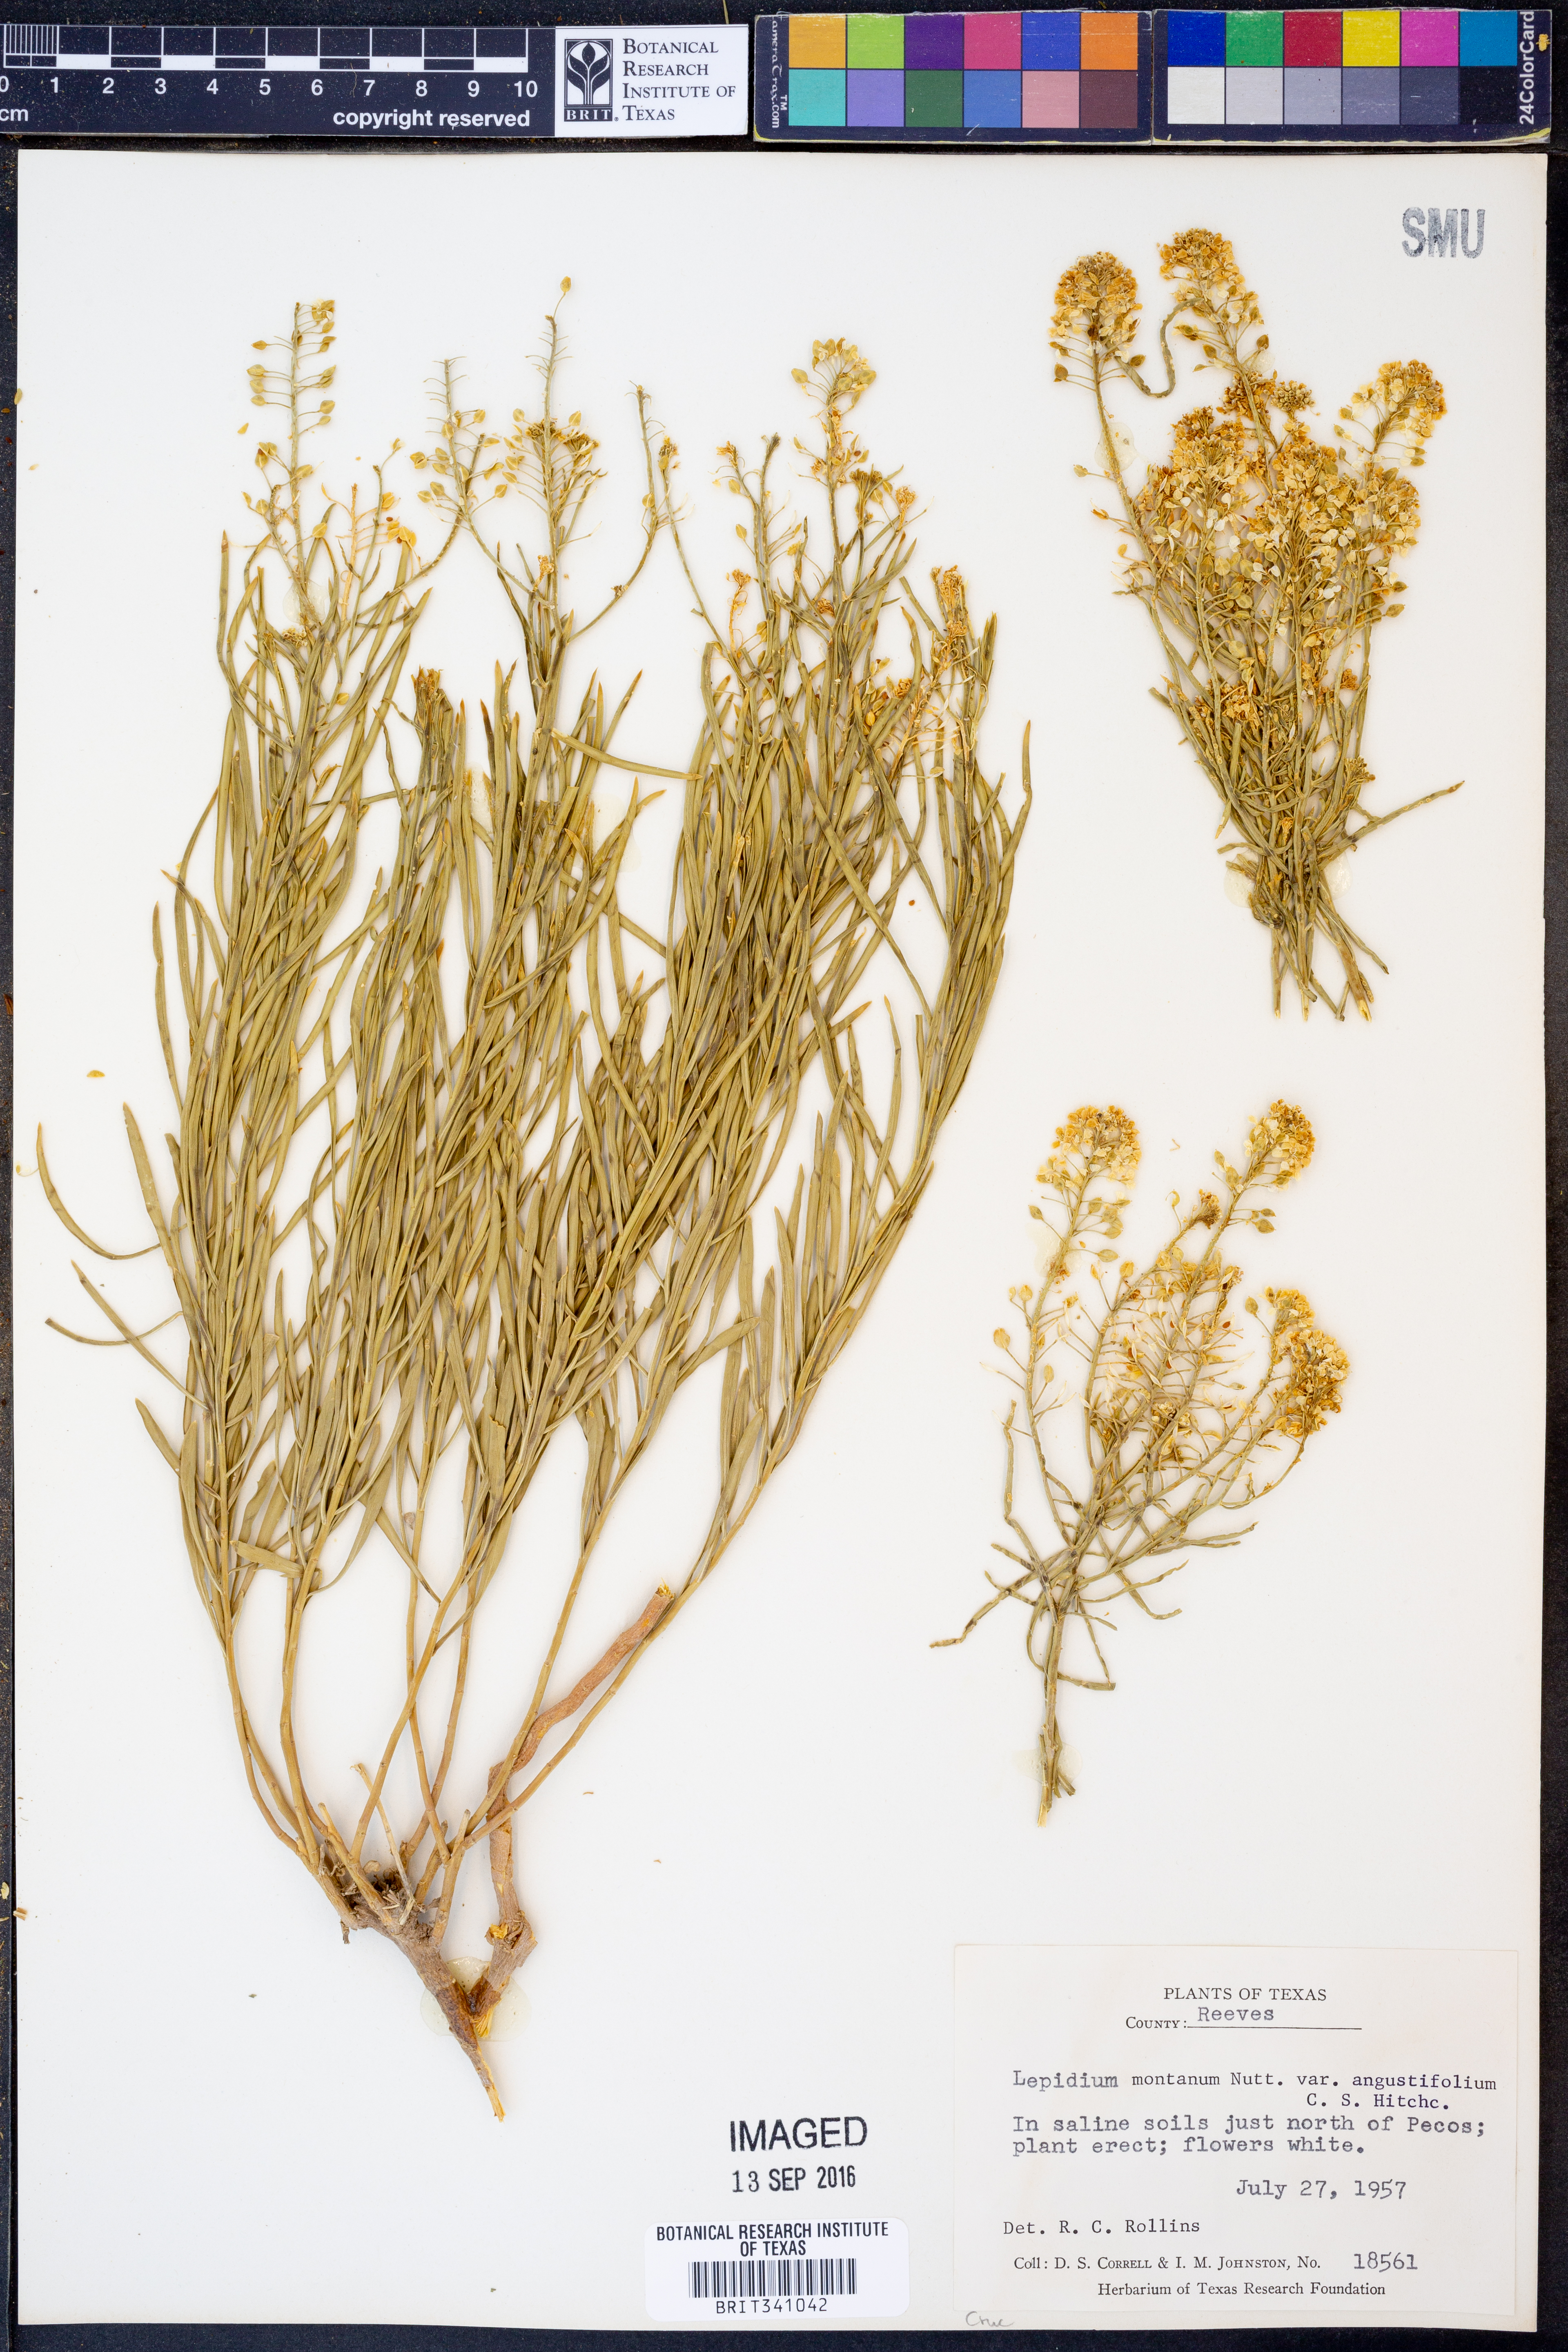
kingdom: Plantae
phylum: Tracheophyta
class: Magnoliopsida
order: Brassicales
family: Brassicaceae
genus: Lepidium
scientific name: Lepidium alyssoides
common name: Mesa pepperweed
